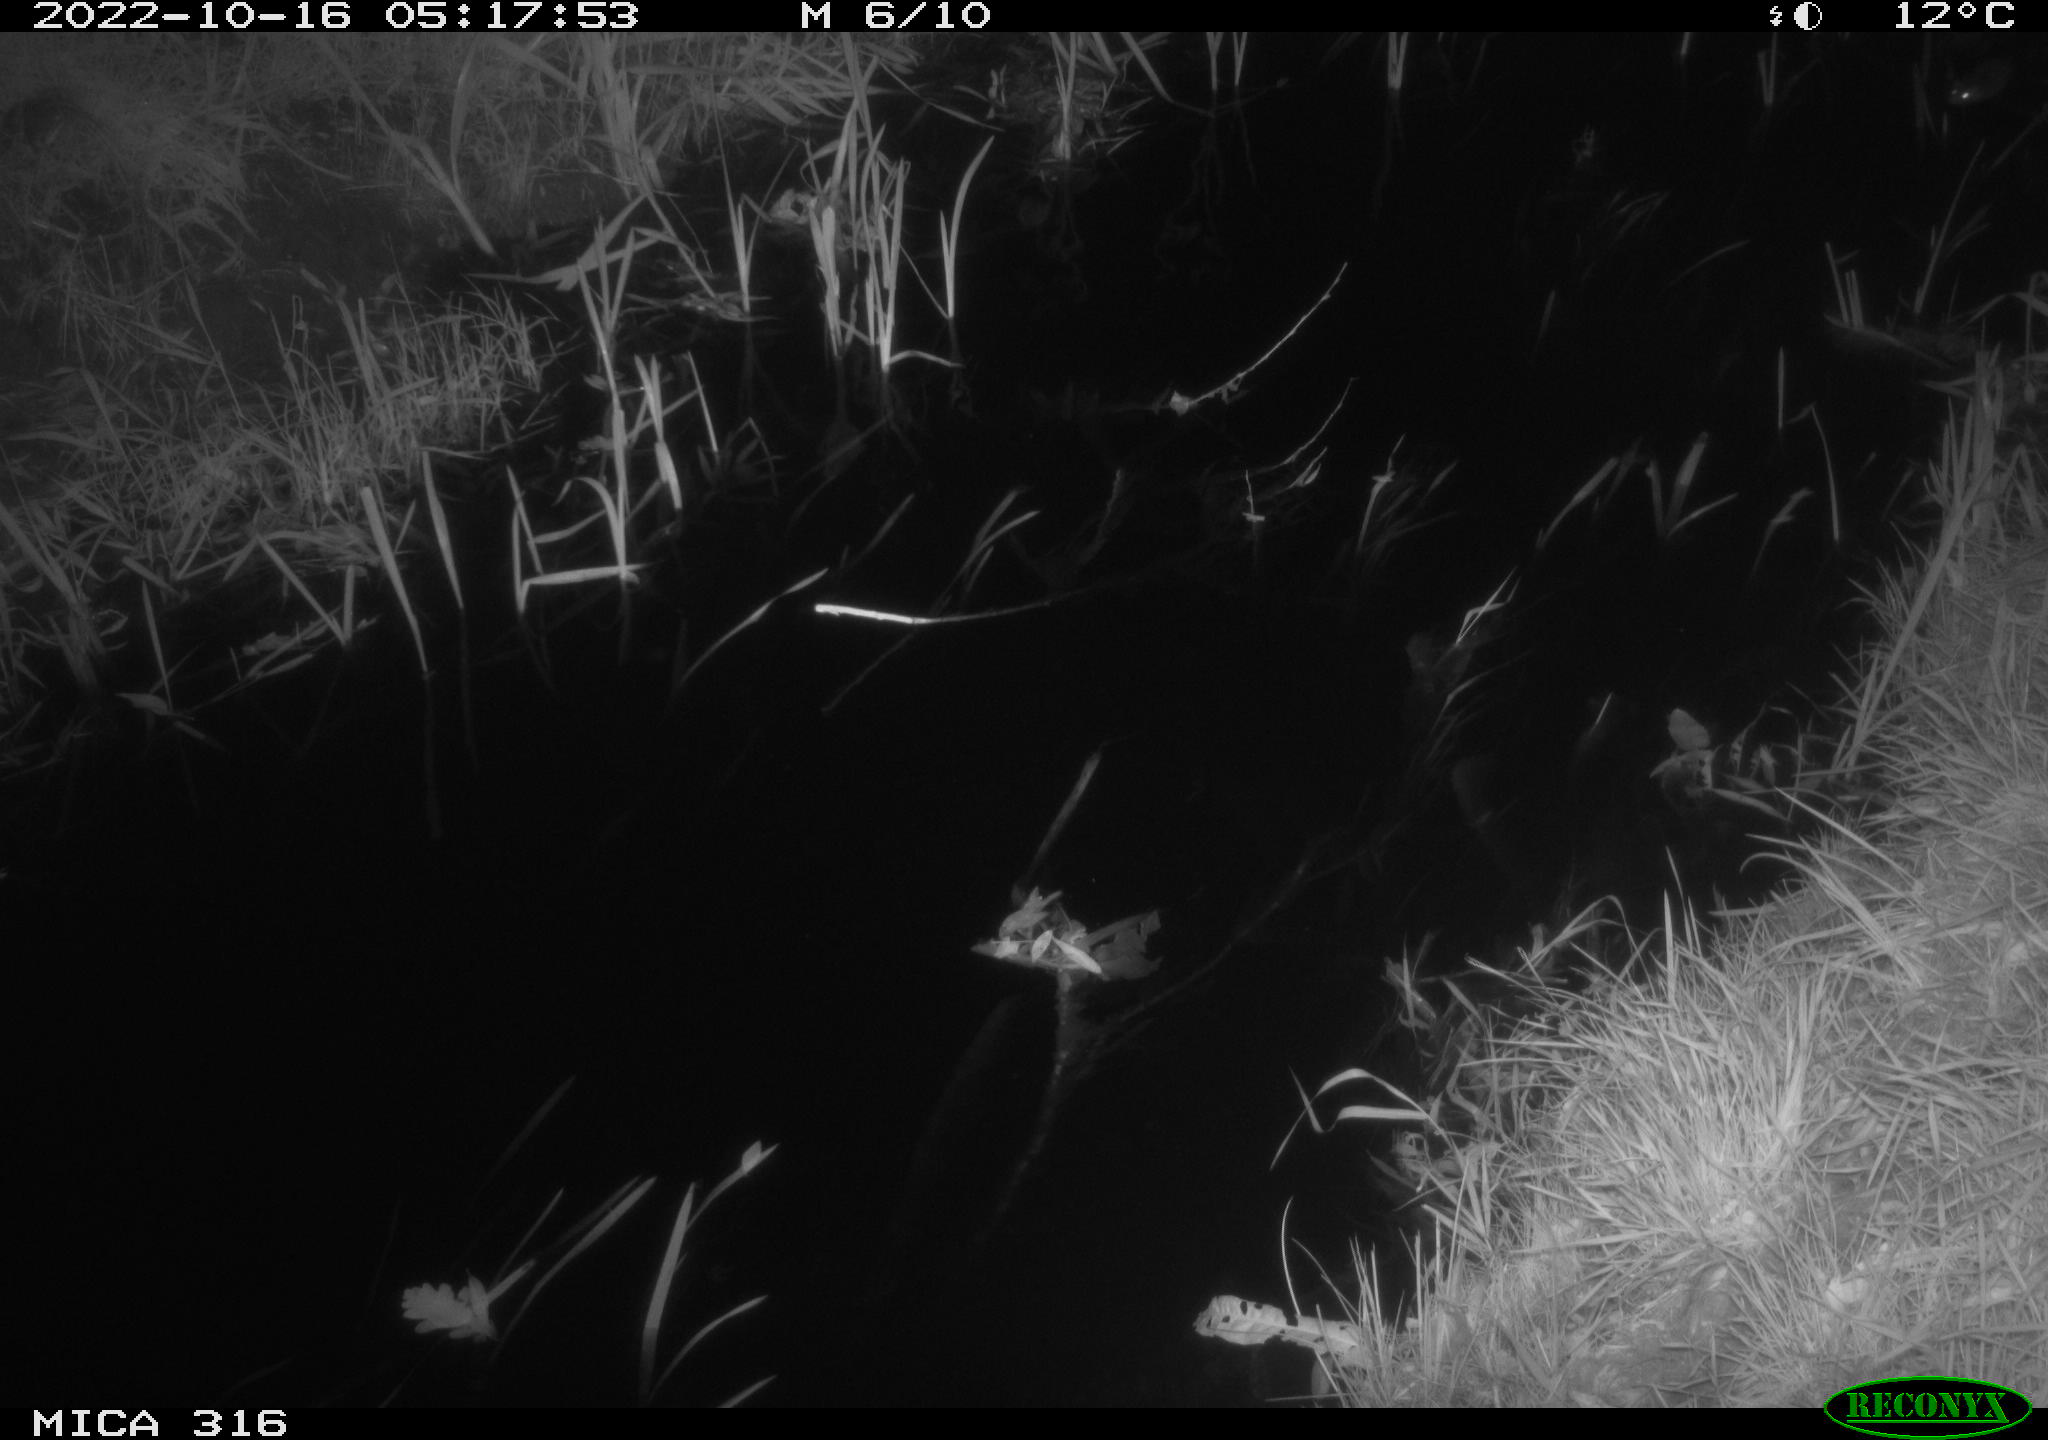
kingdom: Animalia
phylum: Chordata
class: Mammalia
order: Rodentia
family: Muridae
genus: Rattus
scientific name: Rattus norvegicus
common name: Brown rat
